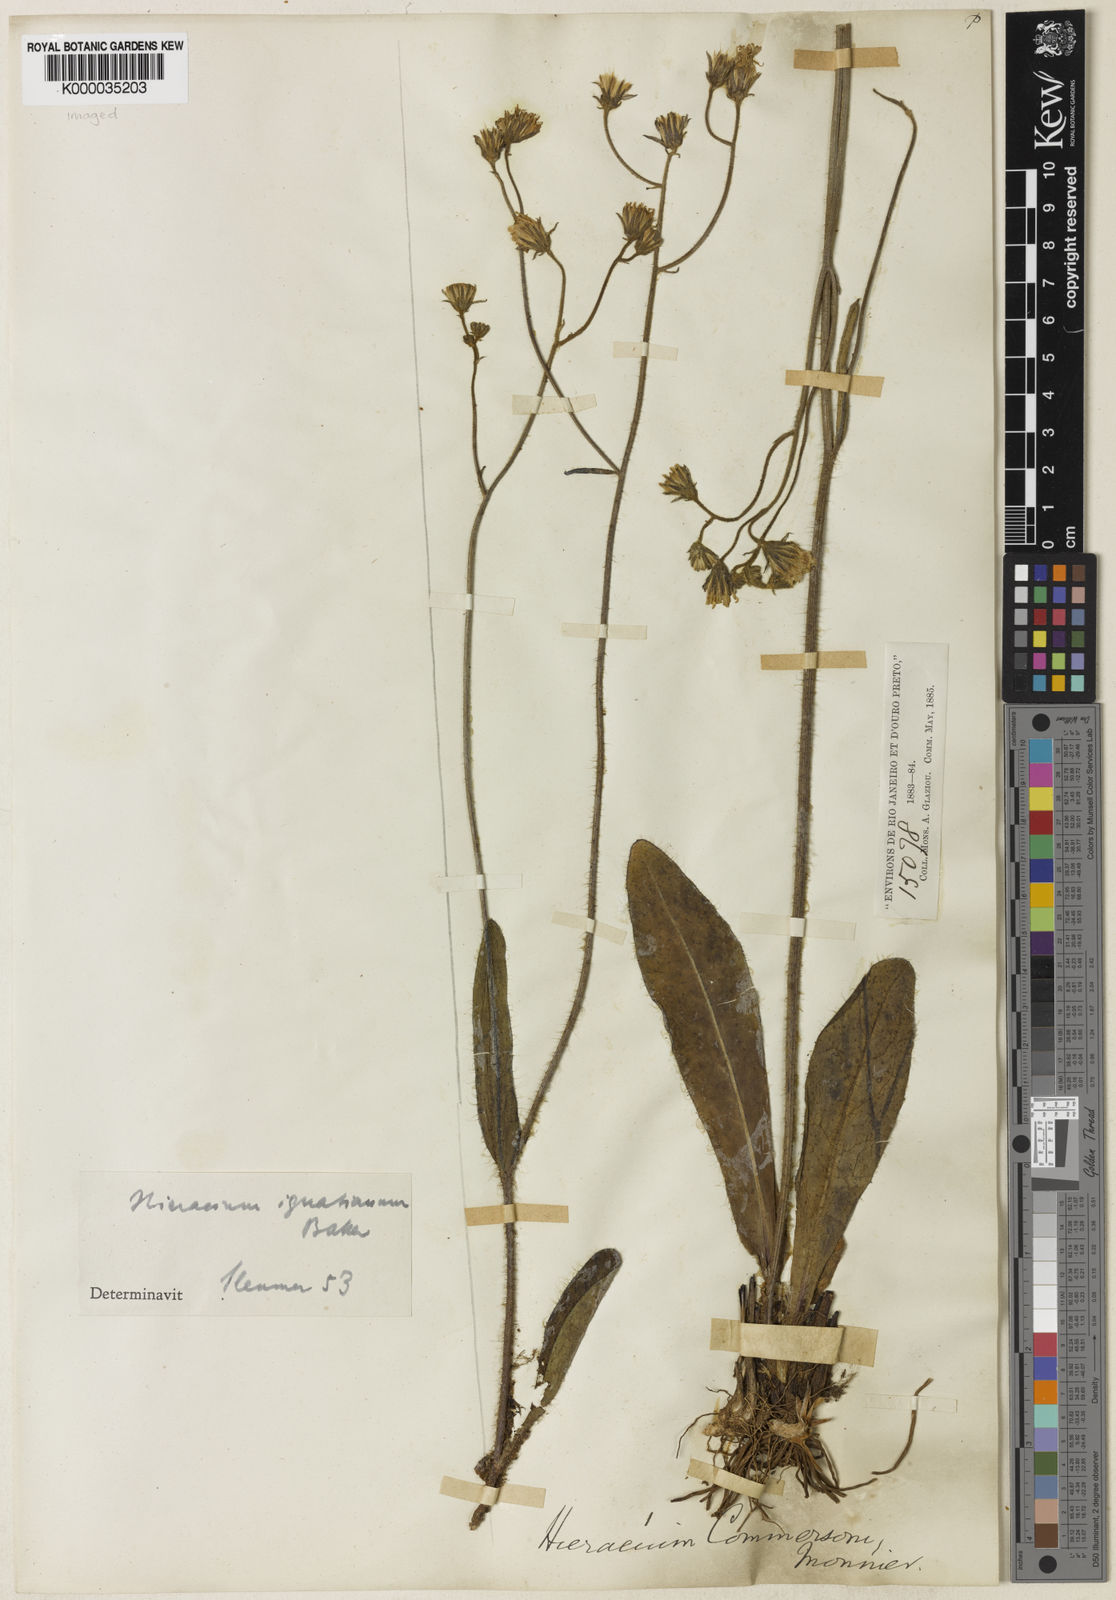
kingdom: Plantae
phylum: Tracheophyta
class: Magnoliopsida
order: Asterales
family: Asteraceae
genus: Hieracium
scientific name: Hieracium ignatianum
